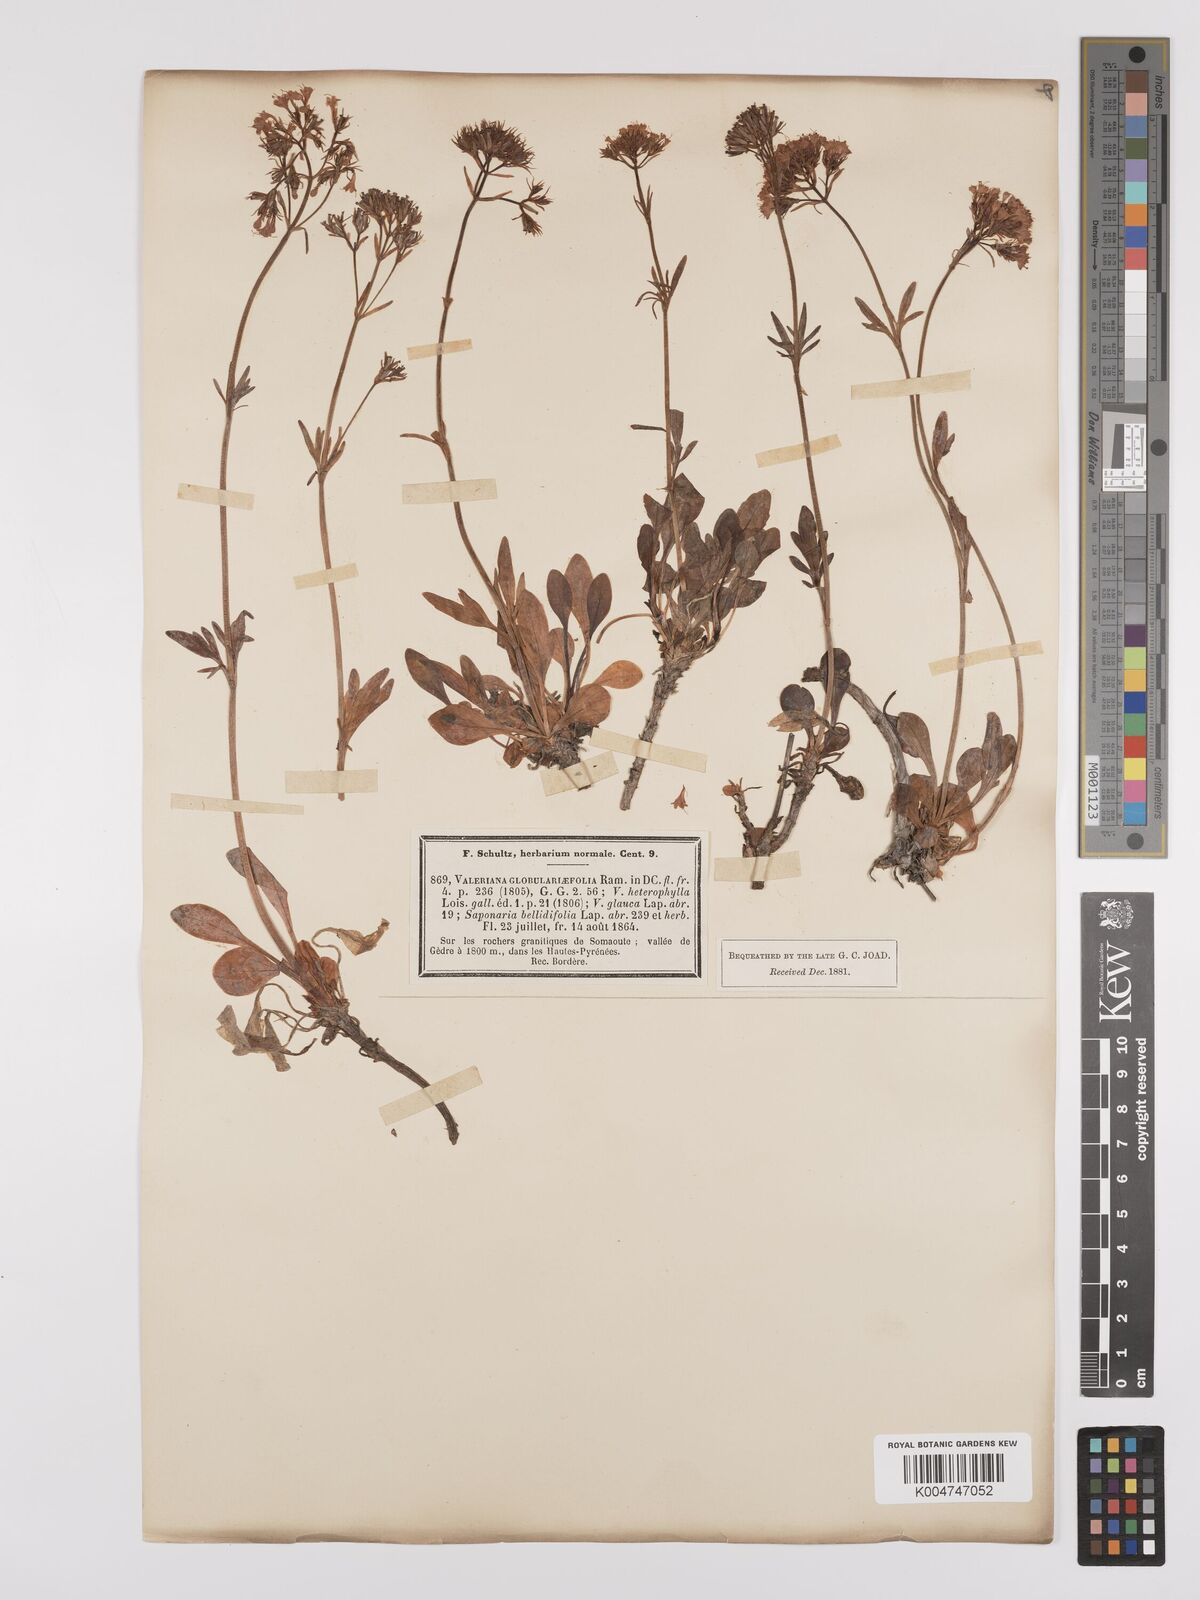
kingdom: Plantae
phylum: Tracheophyta
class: Magnoliopsida
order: Dipsacales
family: Caprifoliaceae
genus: Valeriana
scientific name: Valeriana apula
